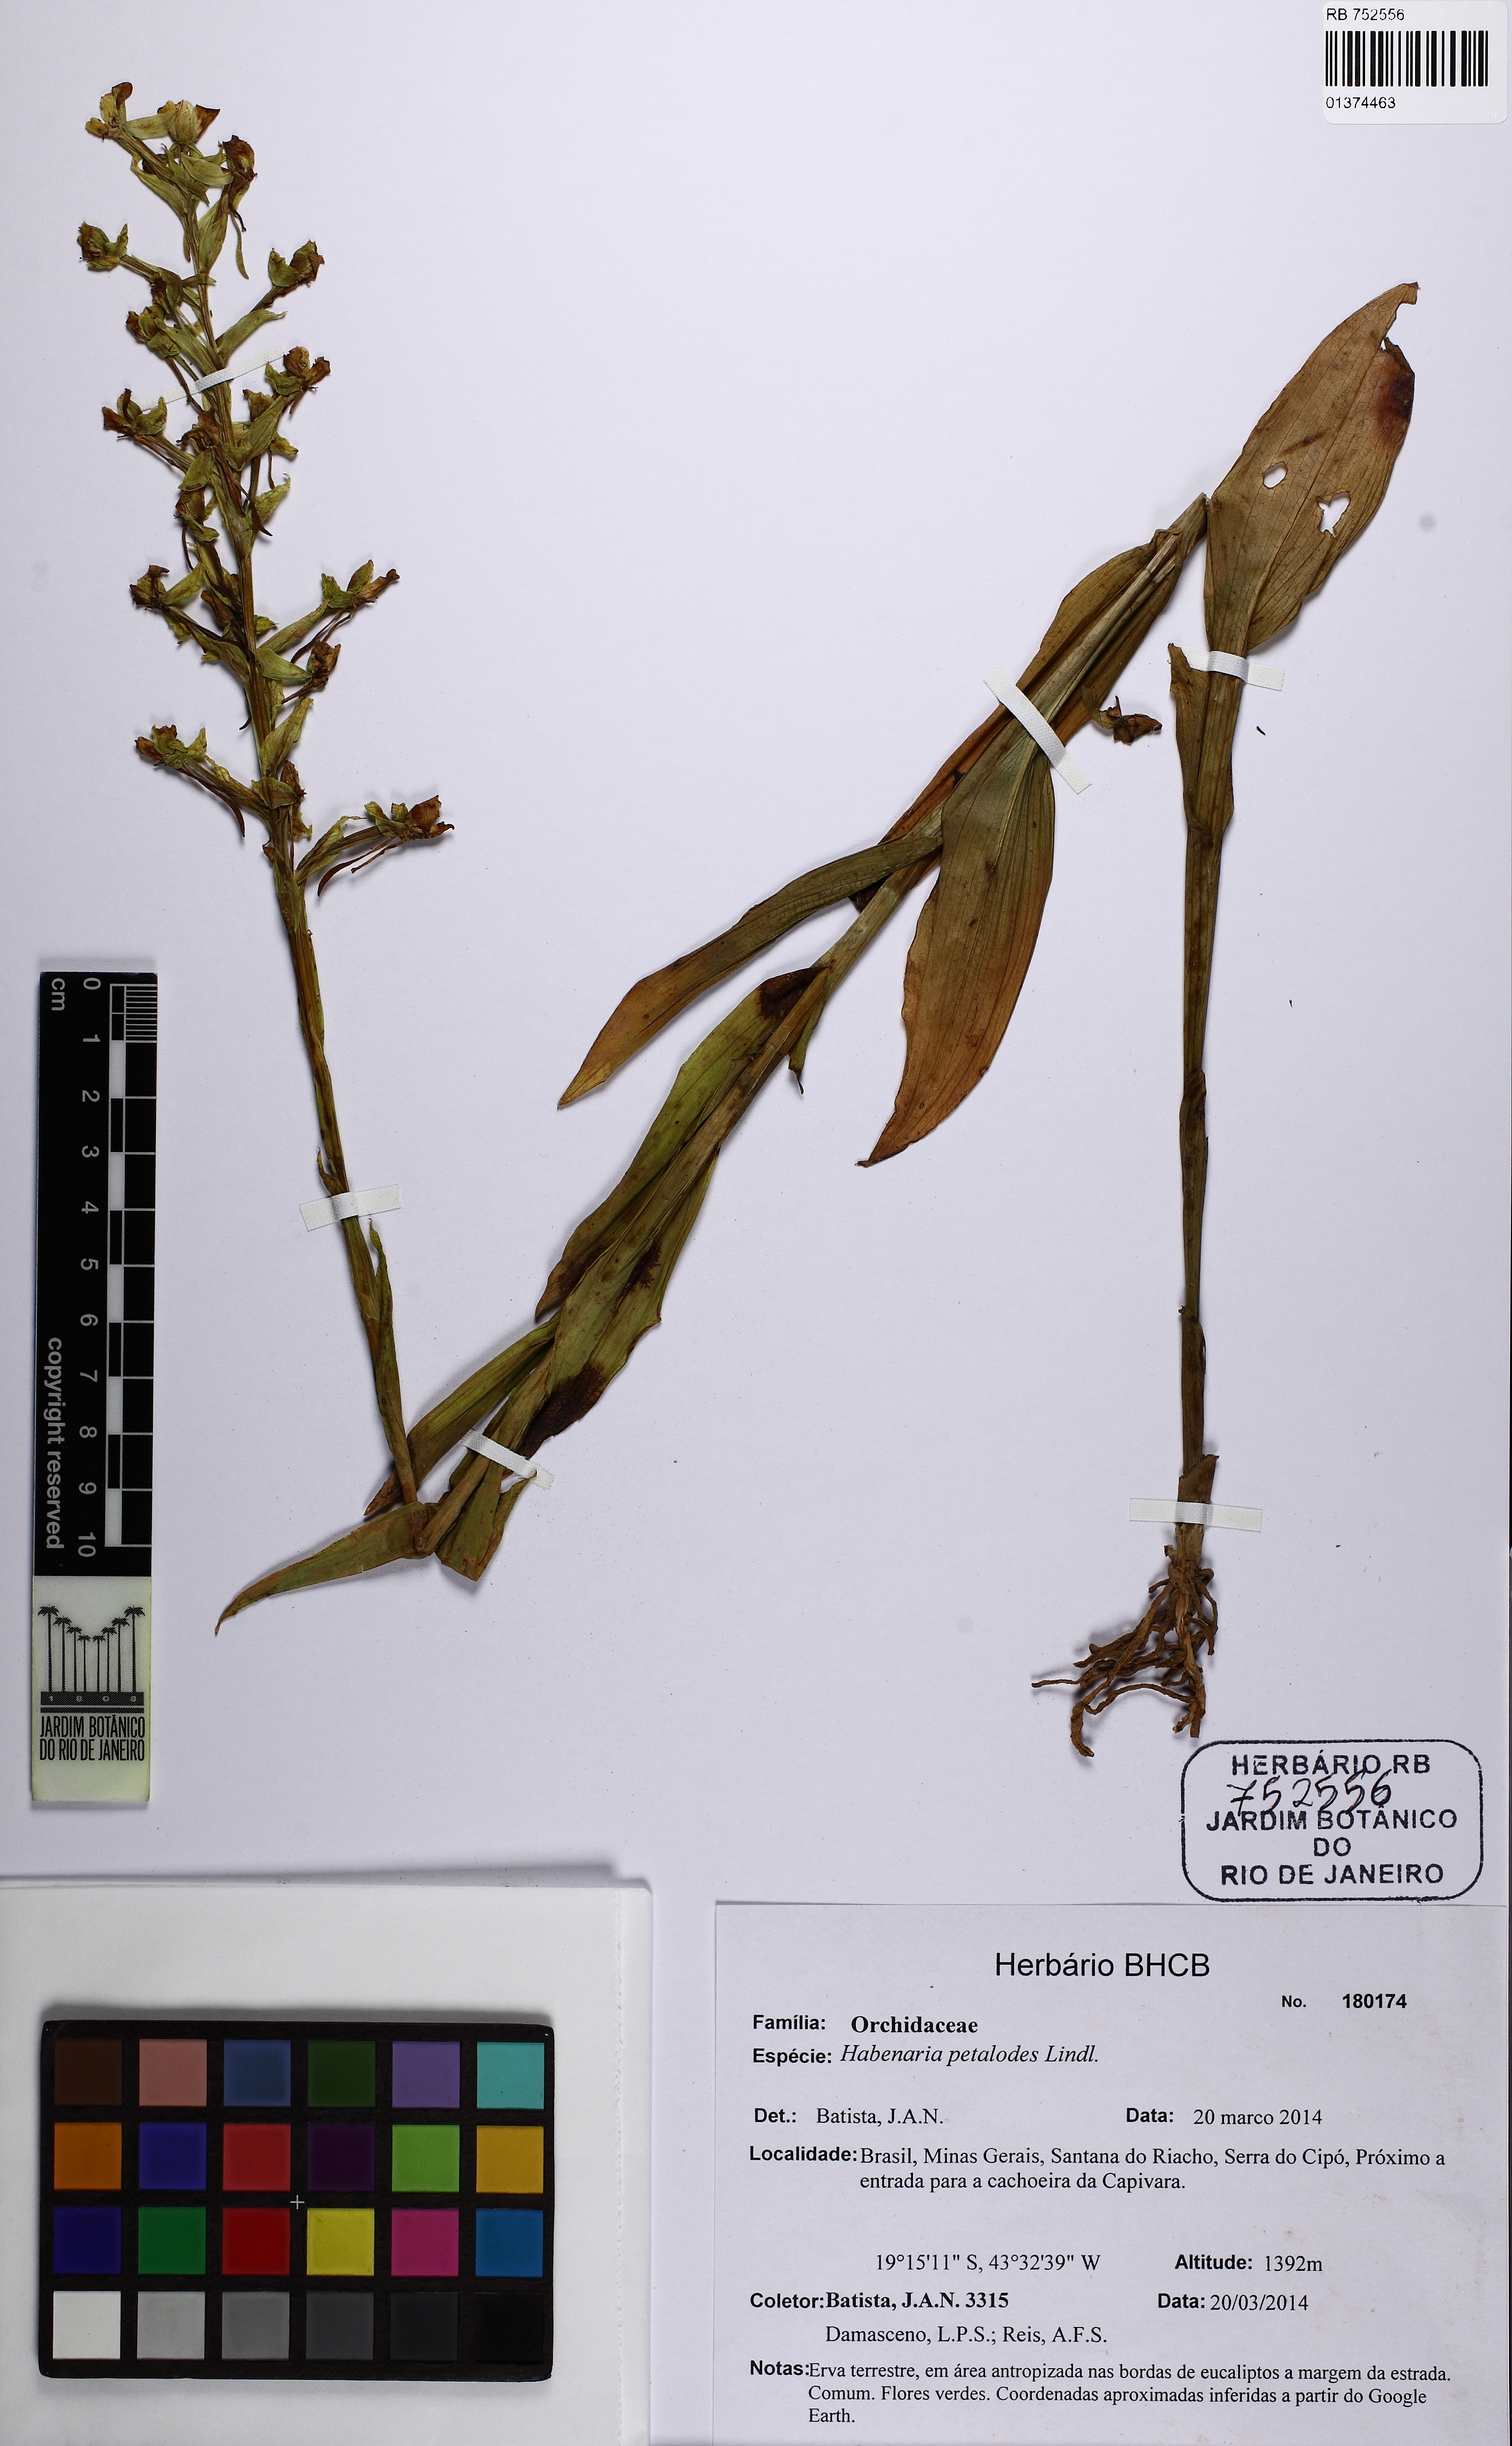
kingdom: Plantae
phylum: Tracheophyta
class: Liliopsida
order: Asparagales
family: Orchidaceae
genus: Habenaria
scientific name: Habenaria petalodes
